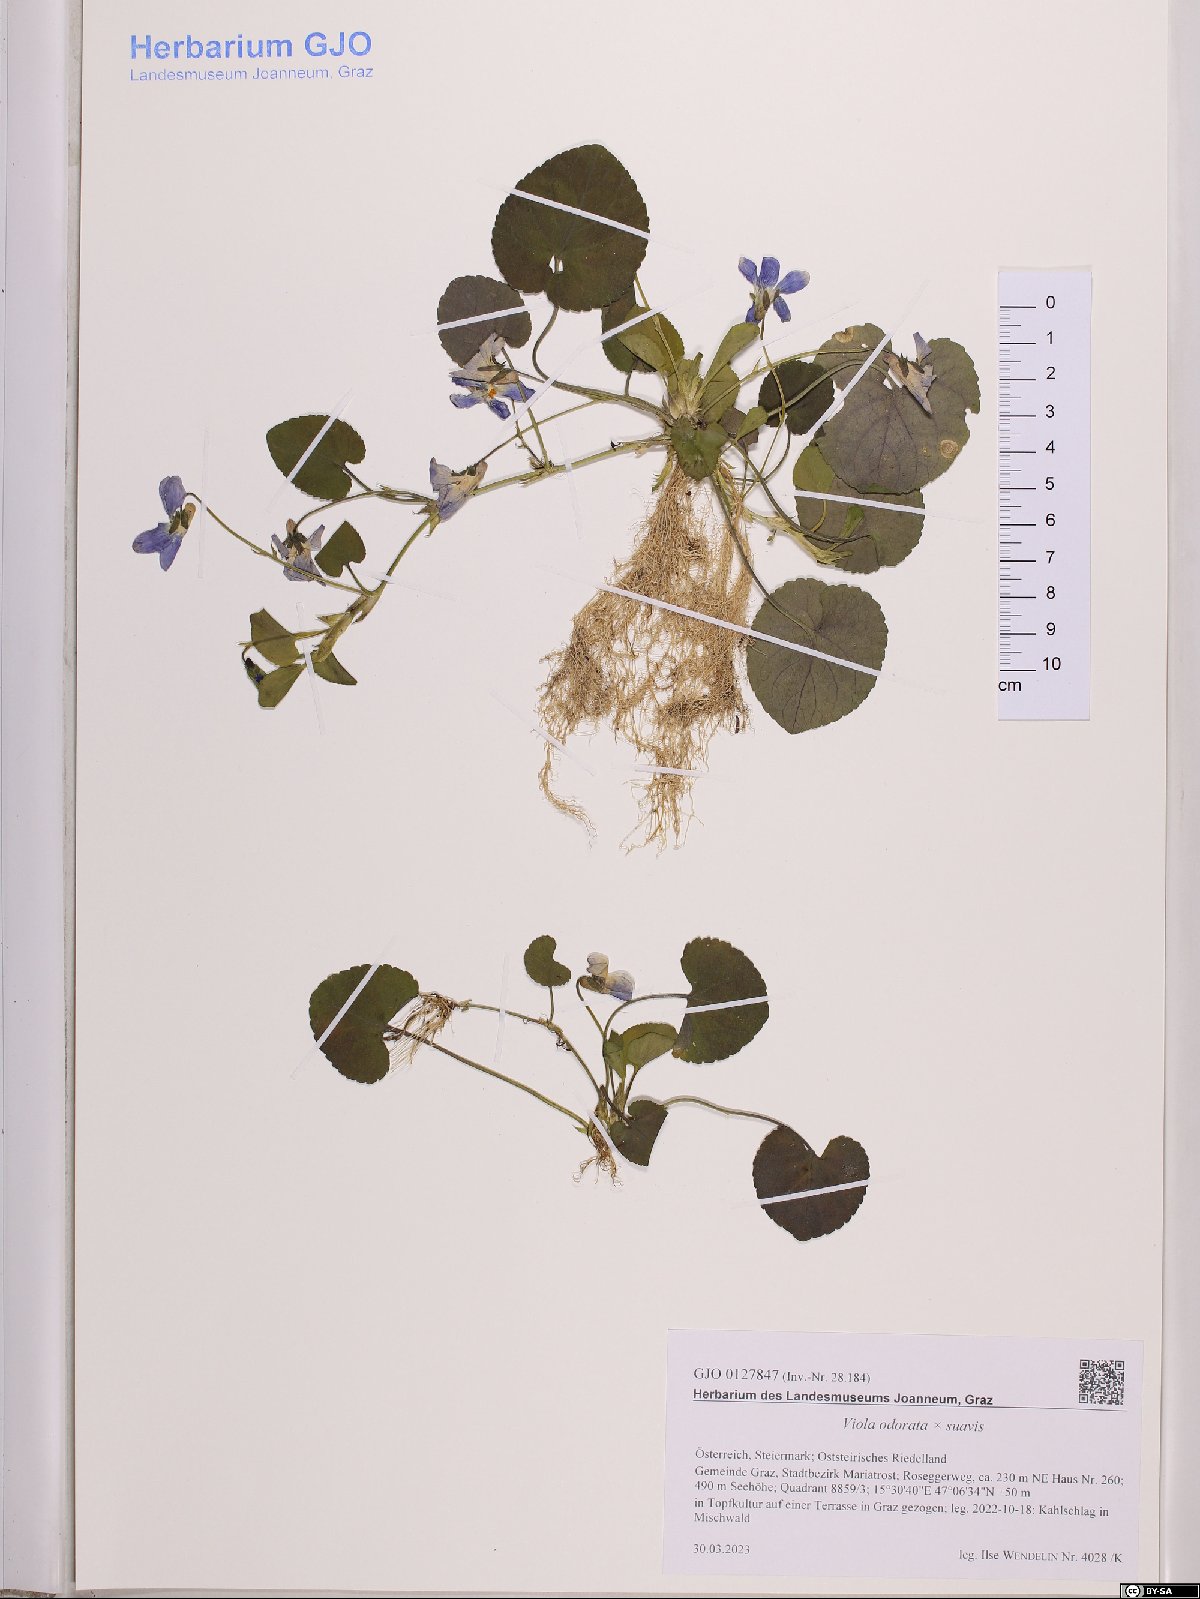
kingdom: Plantae
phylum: Tracheophyta
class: Magnoliopsida
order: Malpighiales
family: Violaceae
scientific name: Violaceae
